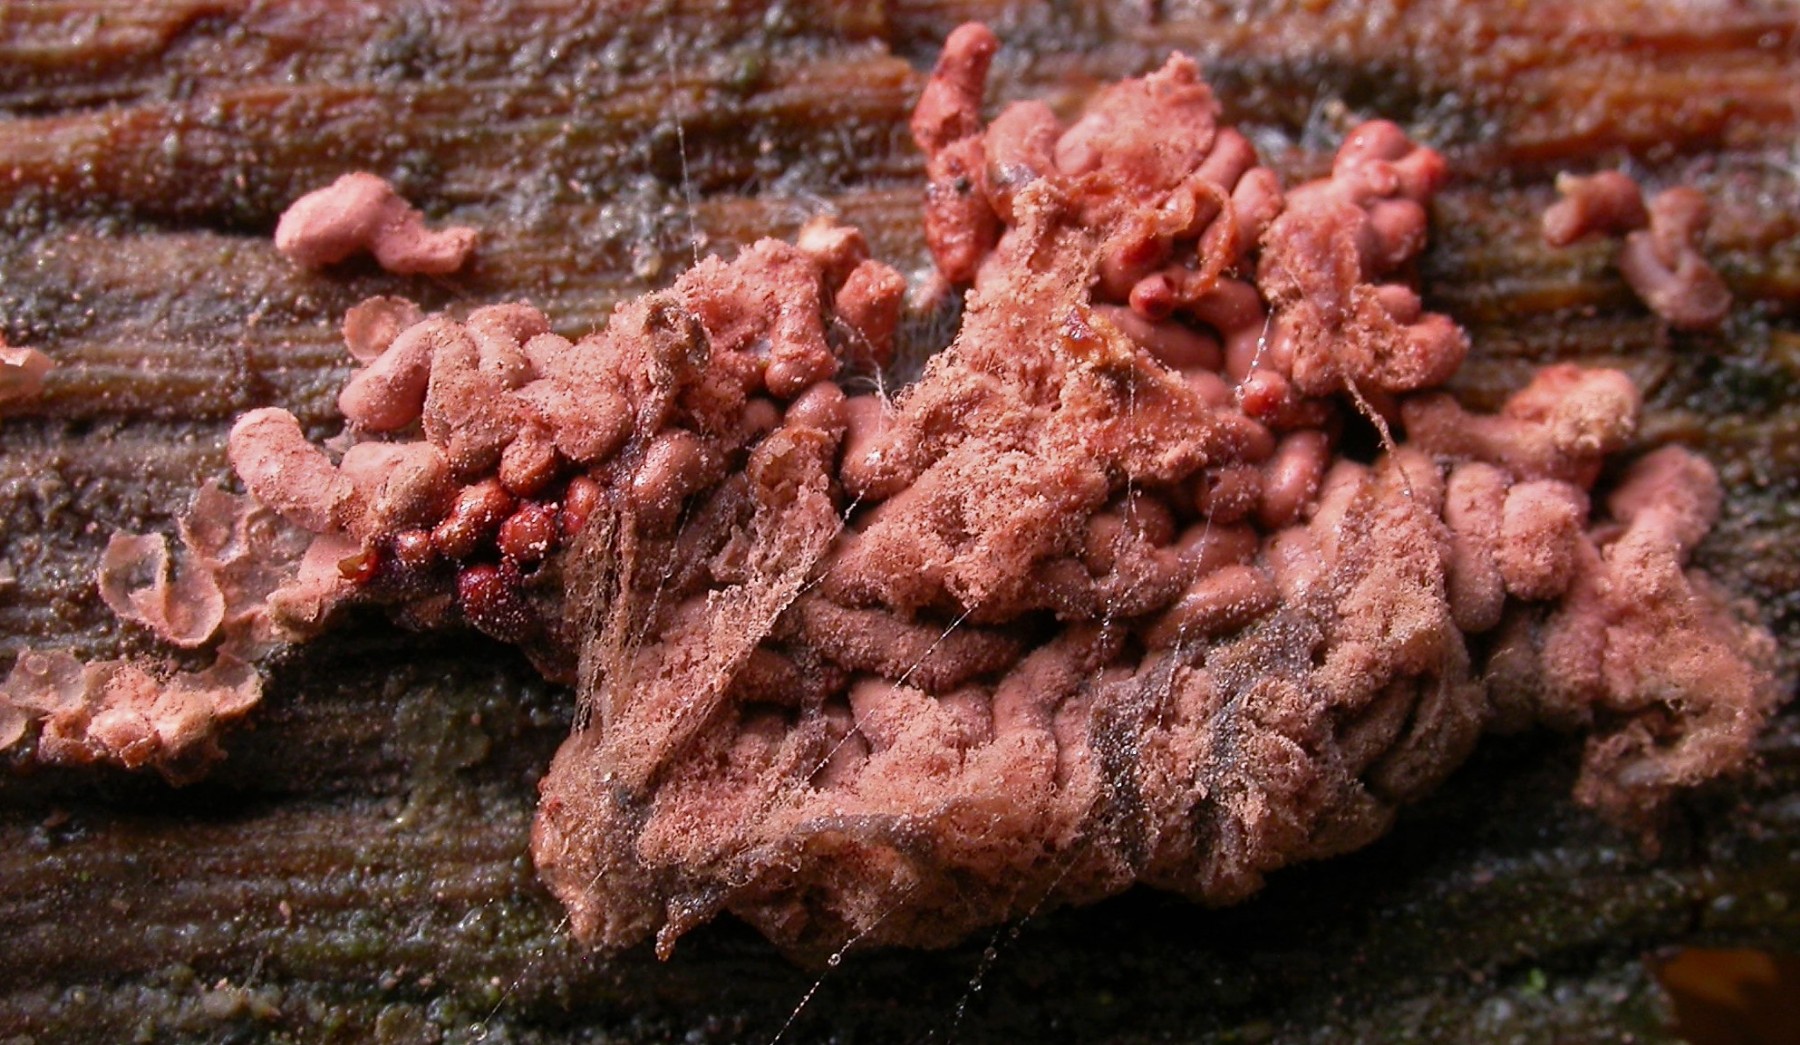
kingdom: Protozoa
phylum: Mycetozoa
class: Myxomycetes
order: Trichiales
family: Arcyriaceae
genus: Arcyria
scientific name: Arcyria stipata
